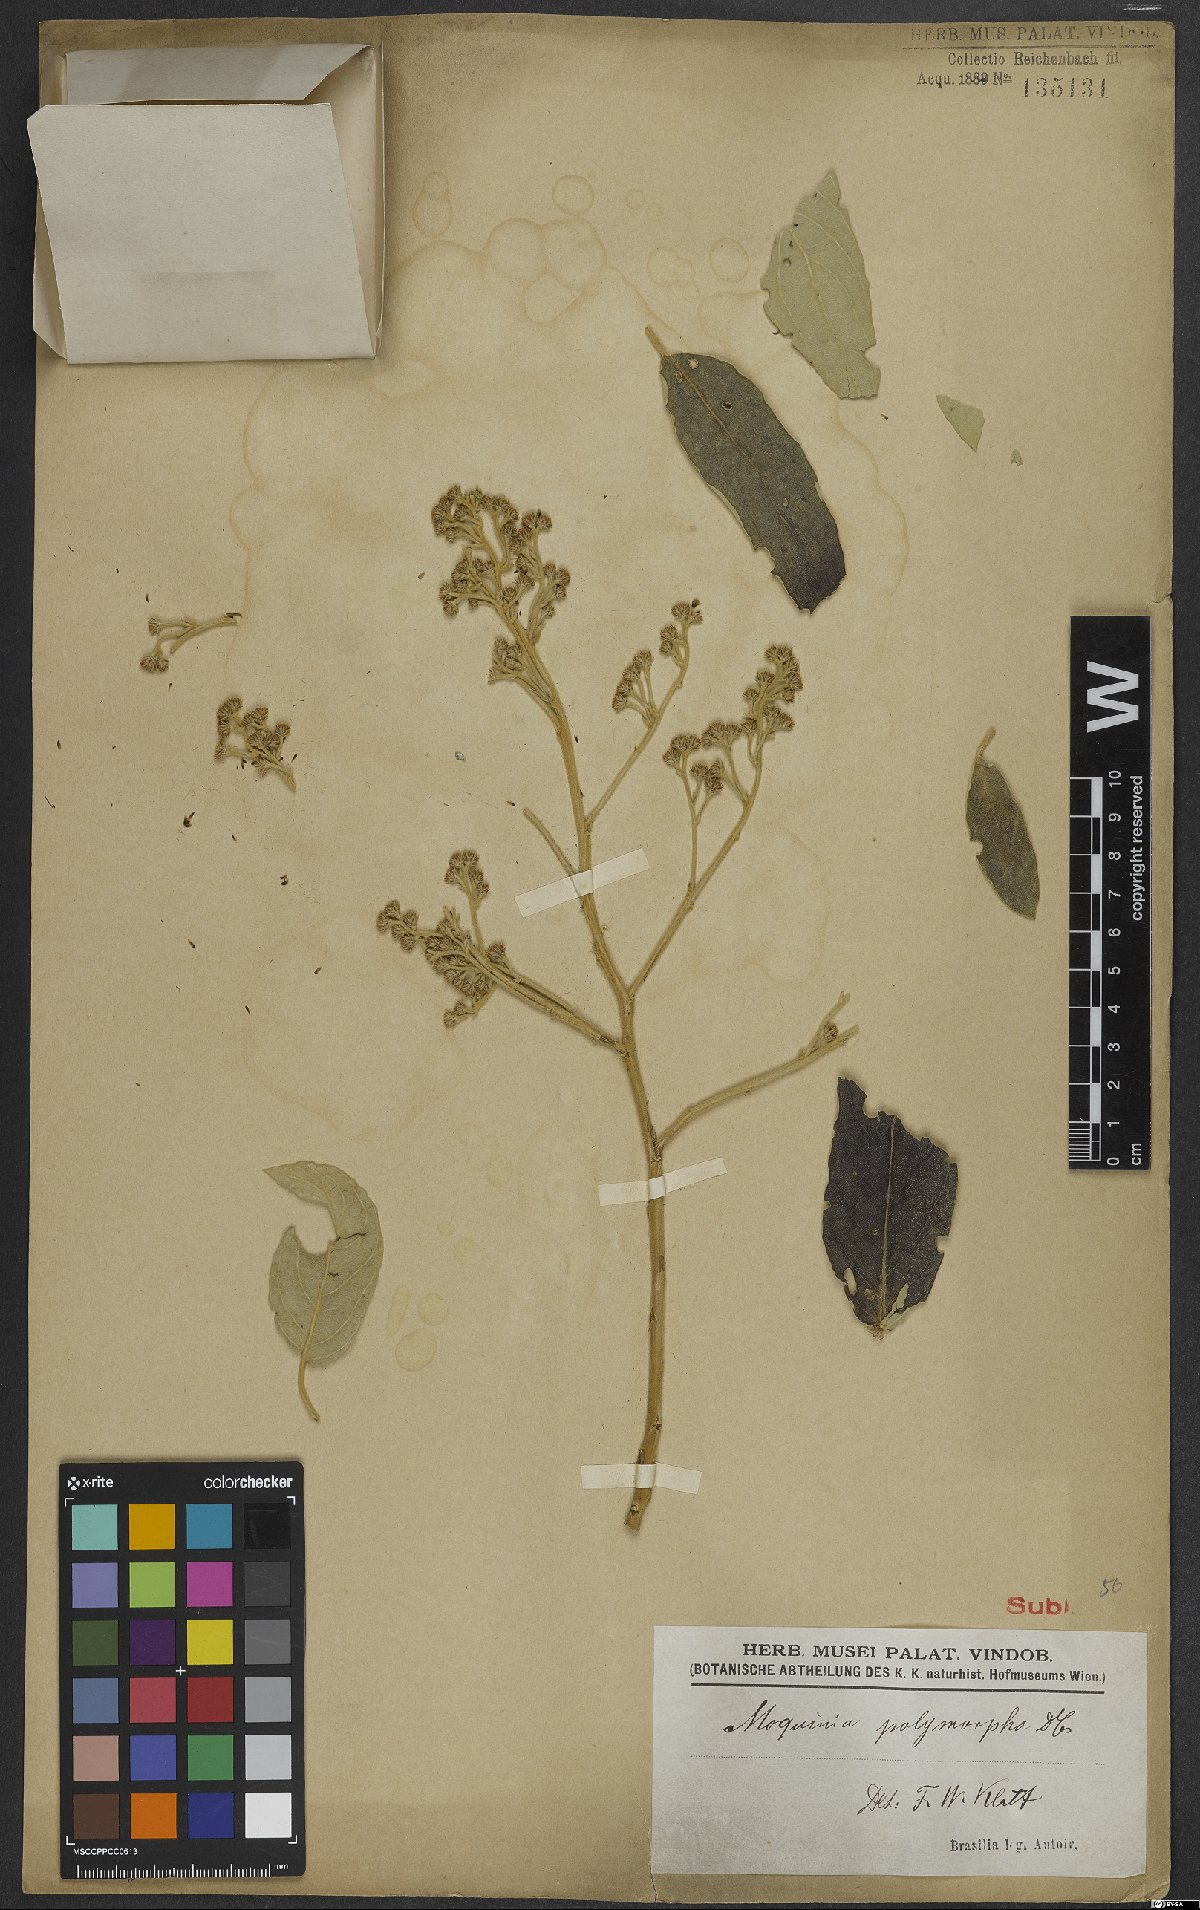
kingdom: Plantae
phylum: Tracheophyta
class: Magnoliopsida
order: Asterales
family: Asteraceae
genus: Moquiniastrum
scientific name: Moquiniastrum polymorphum
